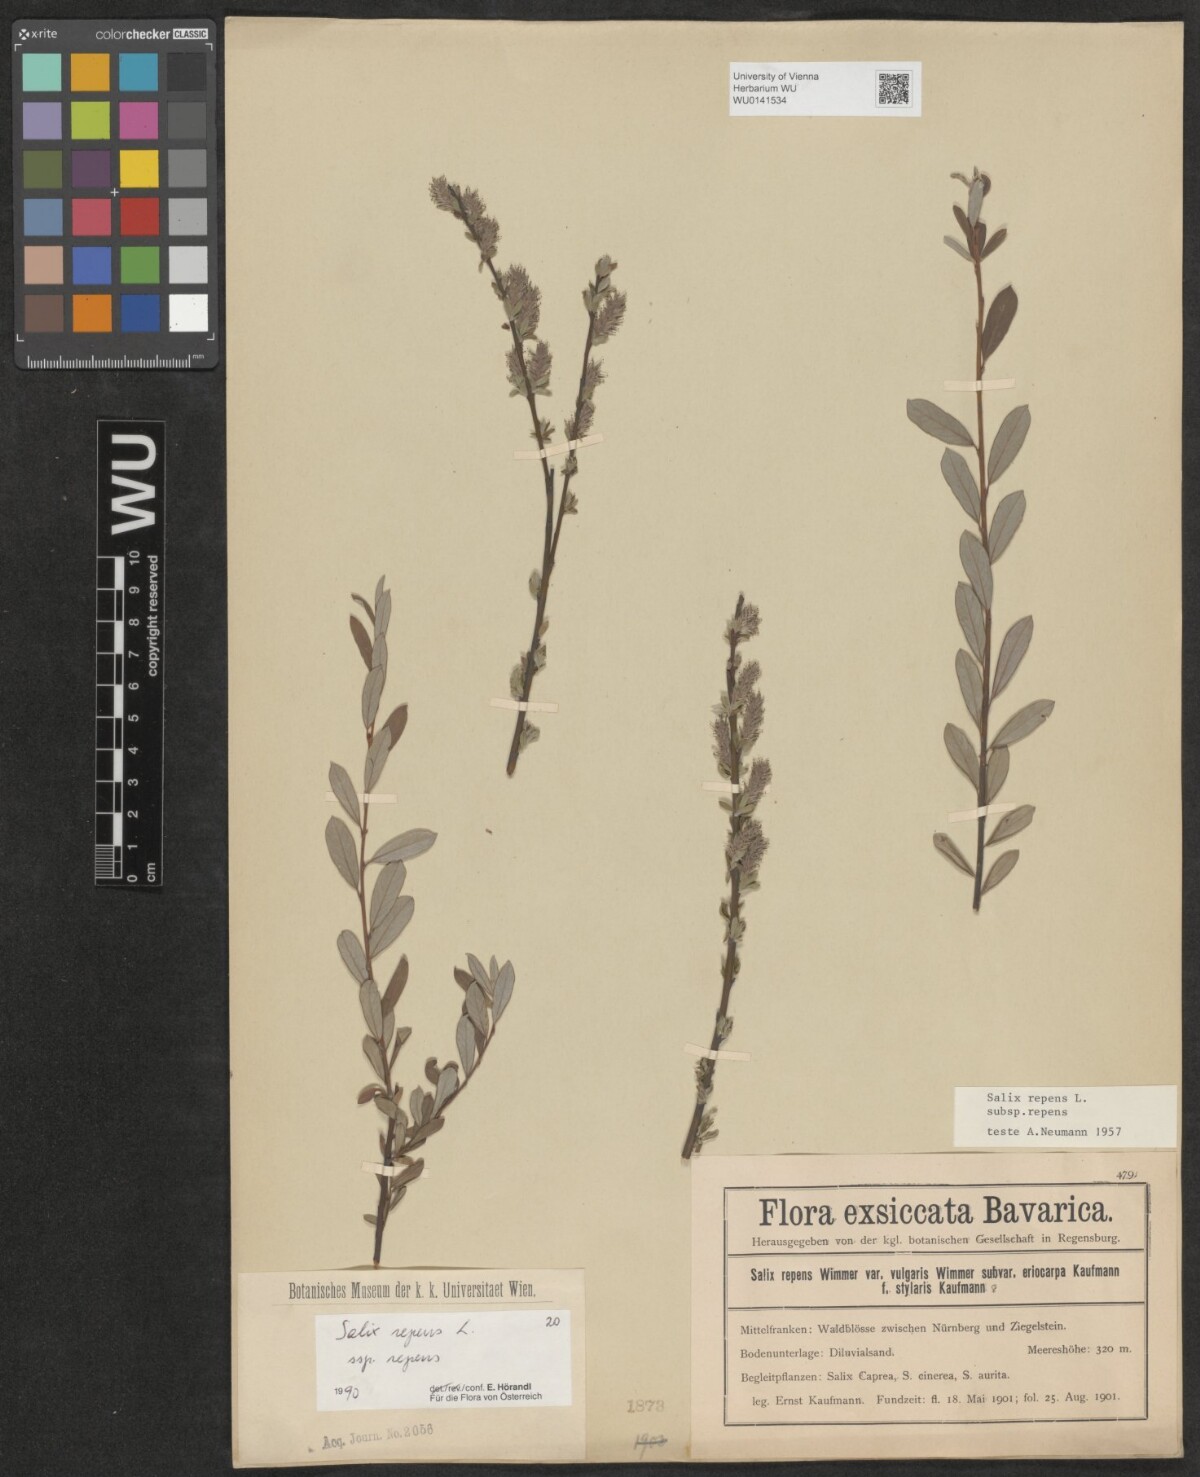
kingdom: Plantae
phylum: Tracheophyta
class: Magnoliopsida
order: Malpighiales
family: Salicaceae
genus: Salix
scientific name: Salix repens
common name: Creeping willow
